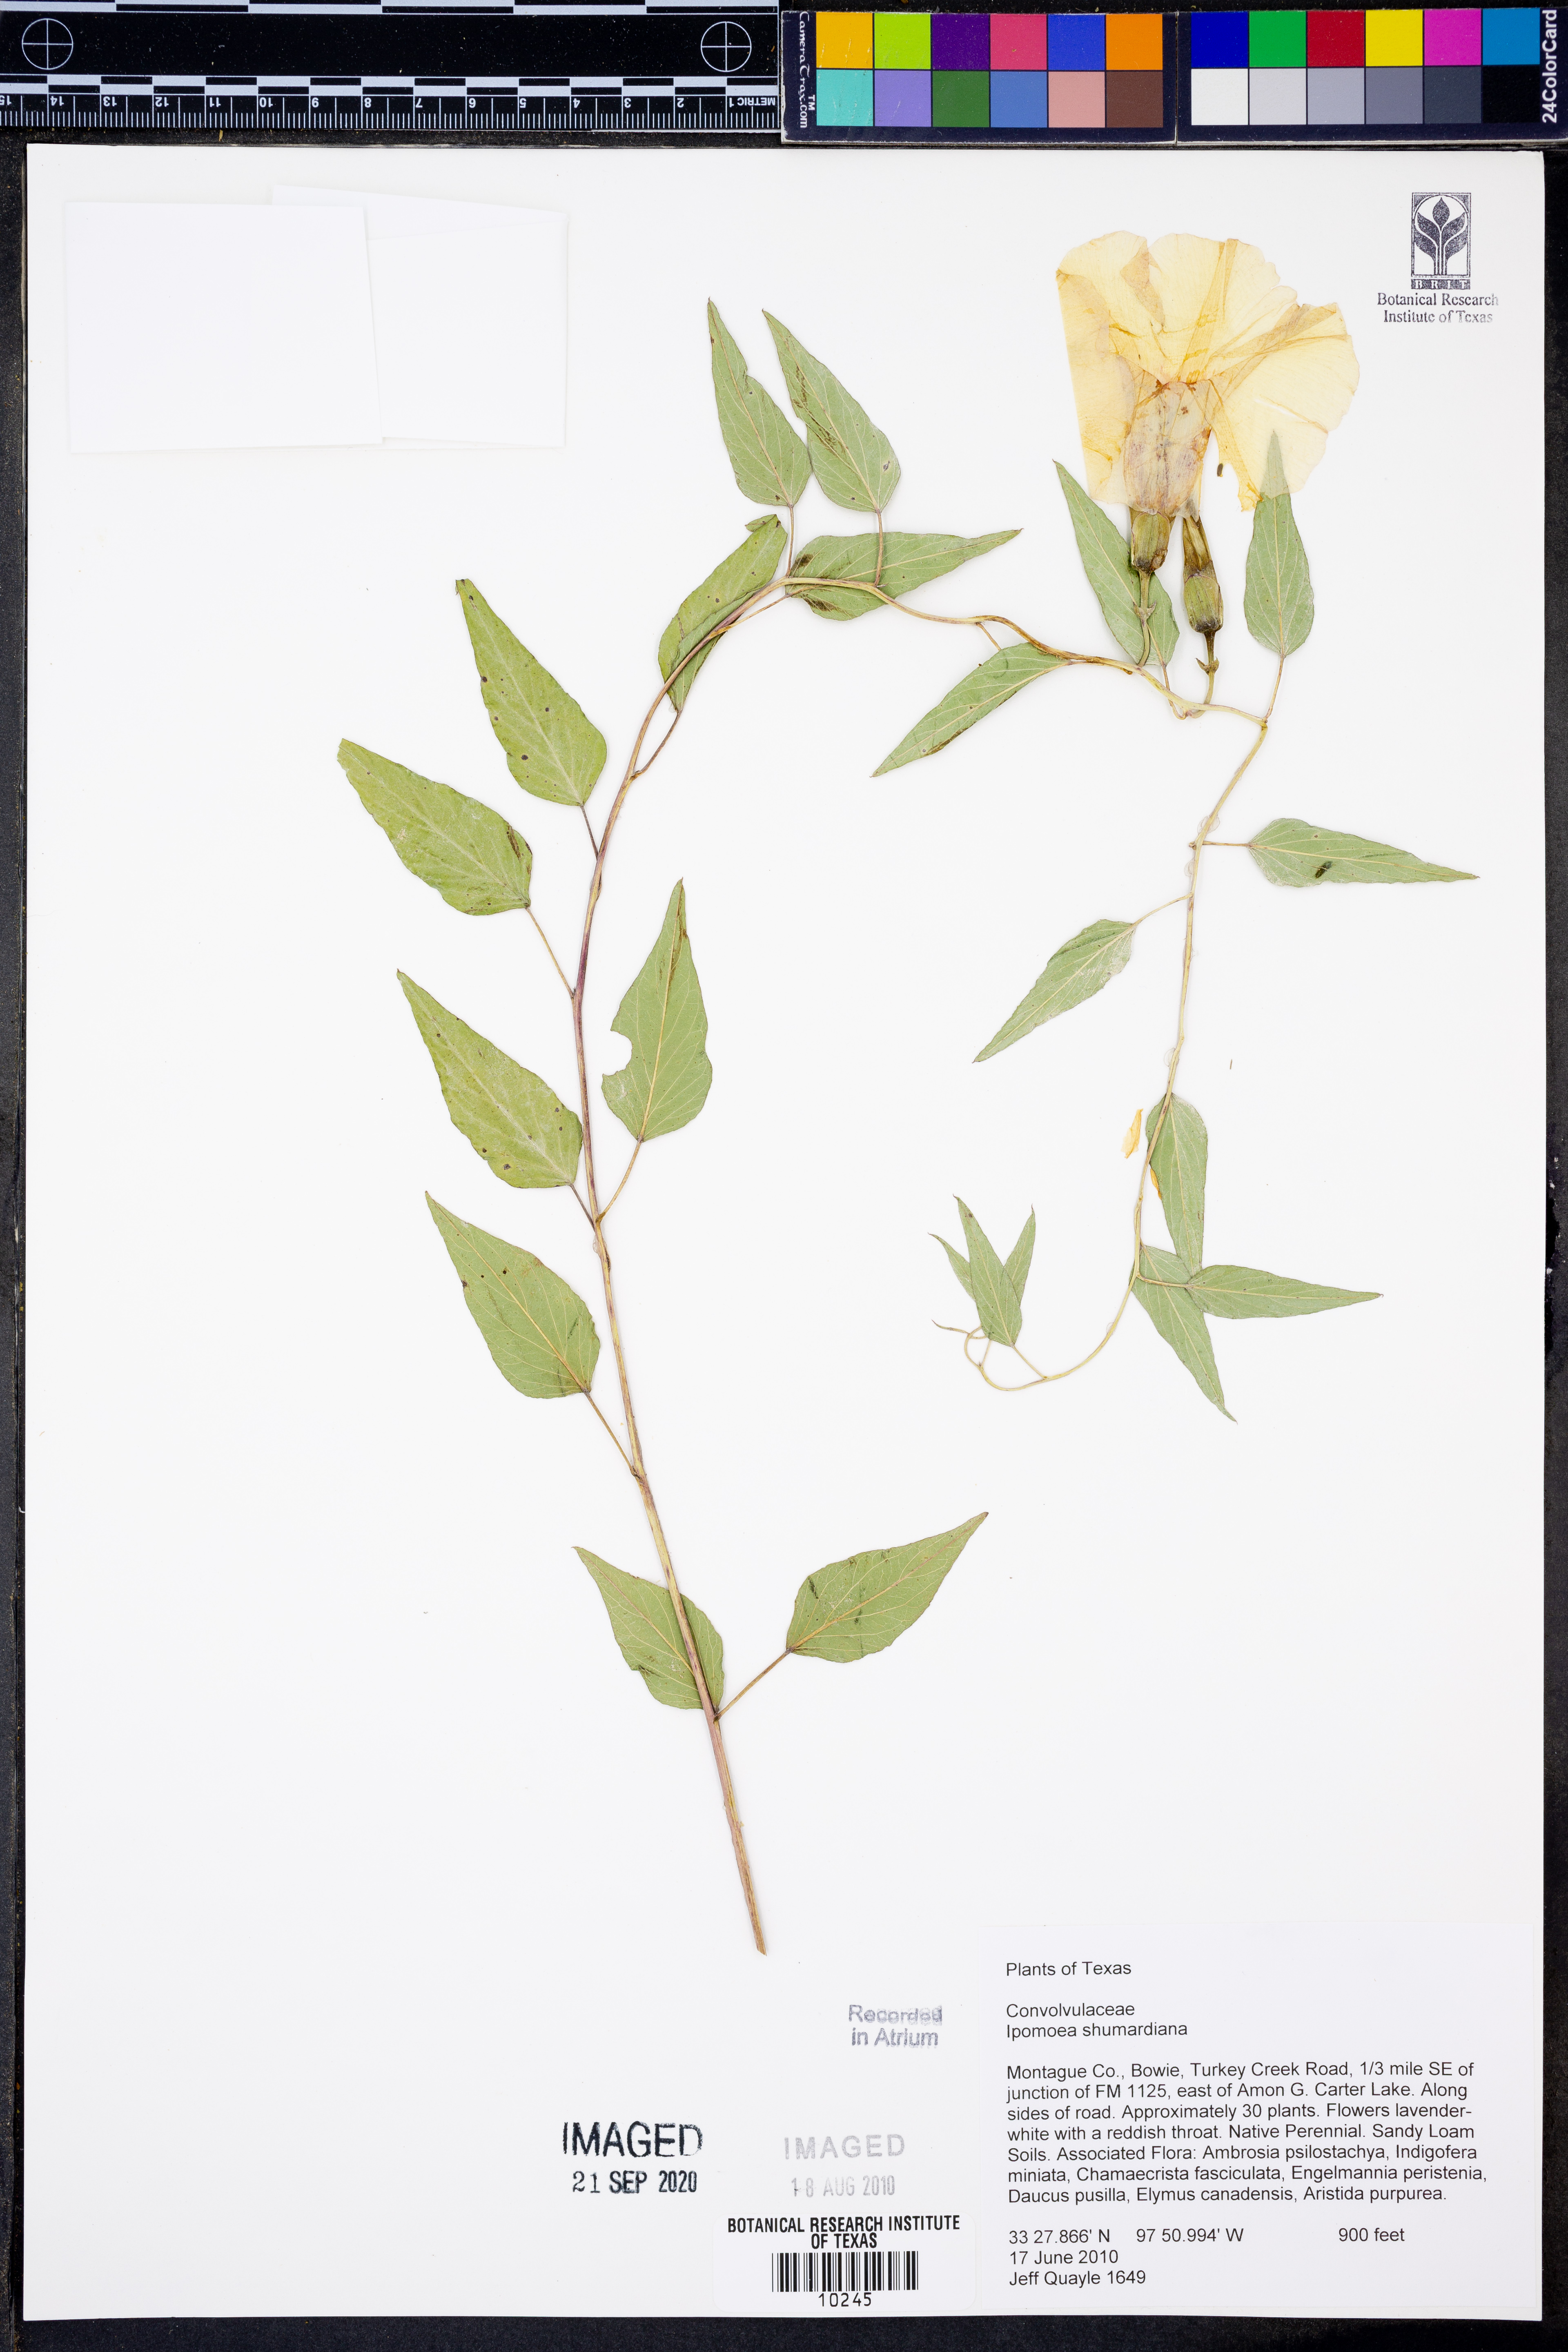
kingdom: Plantae
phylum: Tracheophyta
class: Magnoliopsida
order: Solanales
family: Convolvulaceae
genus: Ipomoea
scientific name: Ipomoea shumardiana
